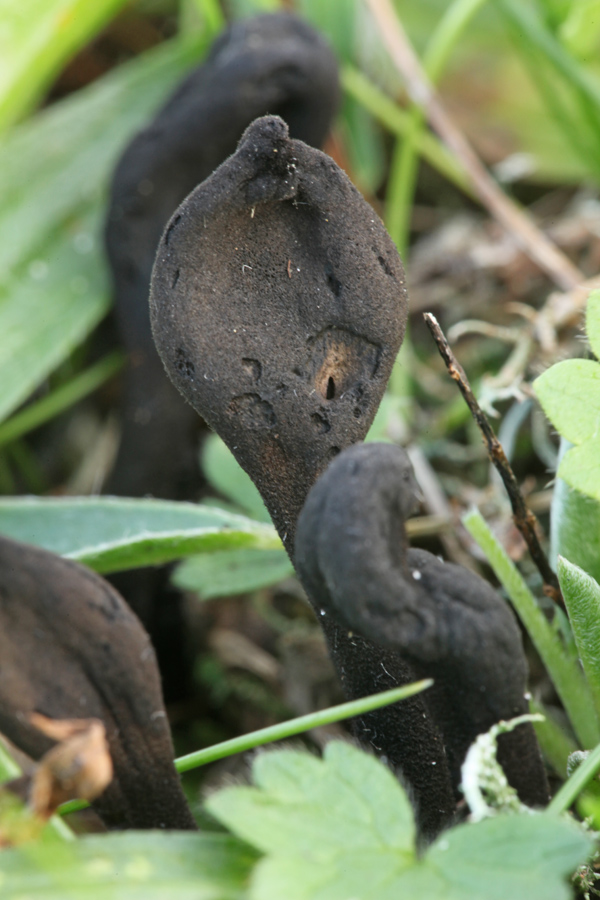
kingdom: Fungi
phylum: Ascomycota
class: Geoglossomycetes
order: Geoglossales
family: Geoglossaceae
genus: Trichoglossum
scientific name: Trichoglossum hirsutum
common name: håret jordtunge
